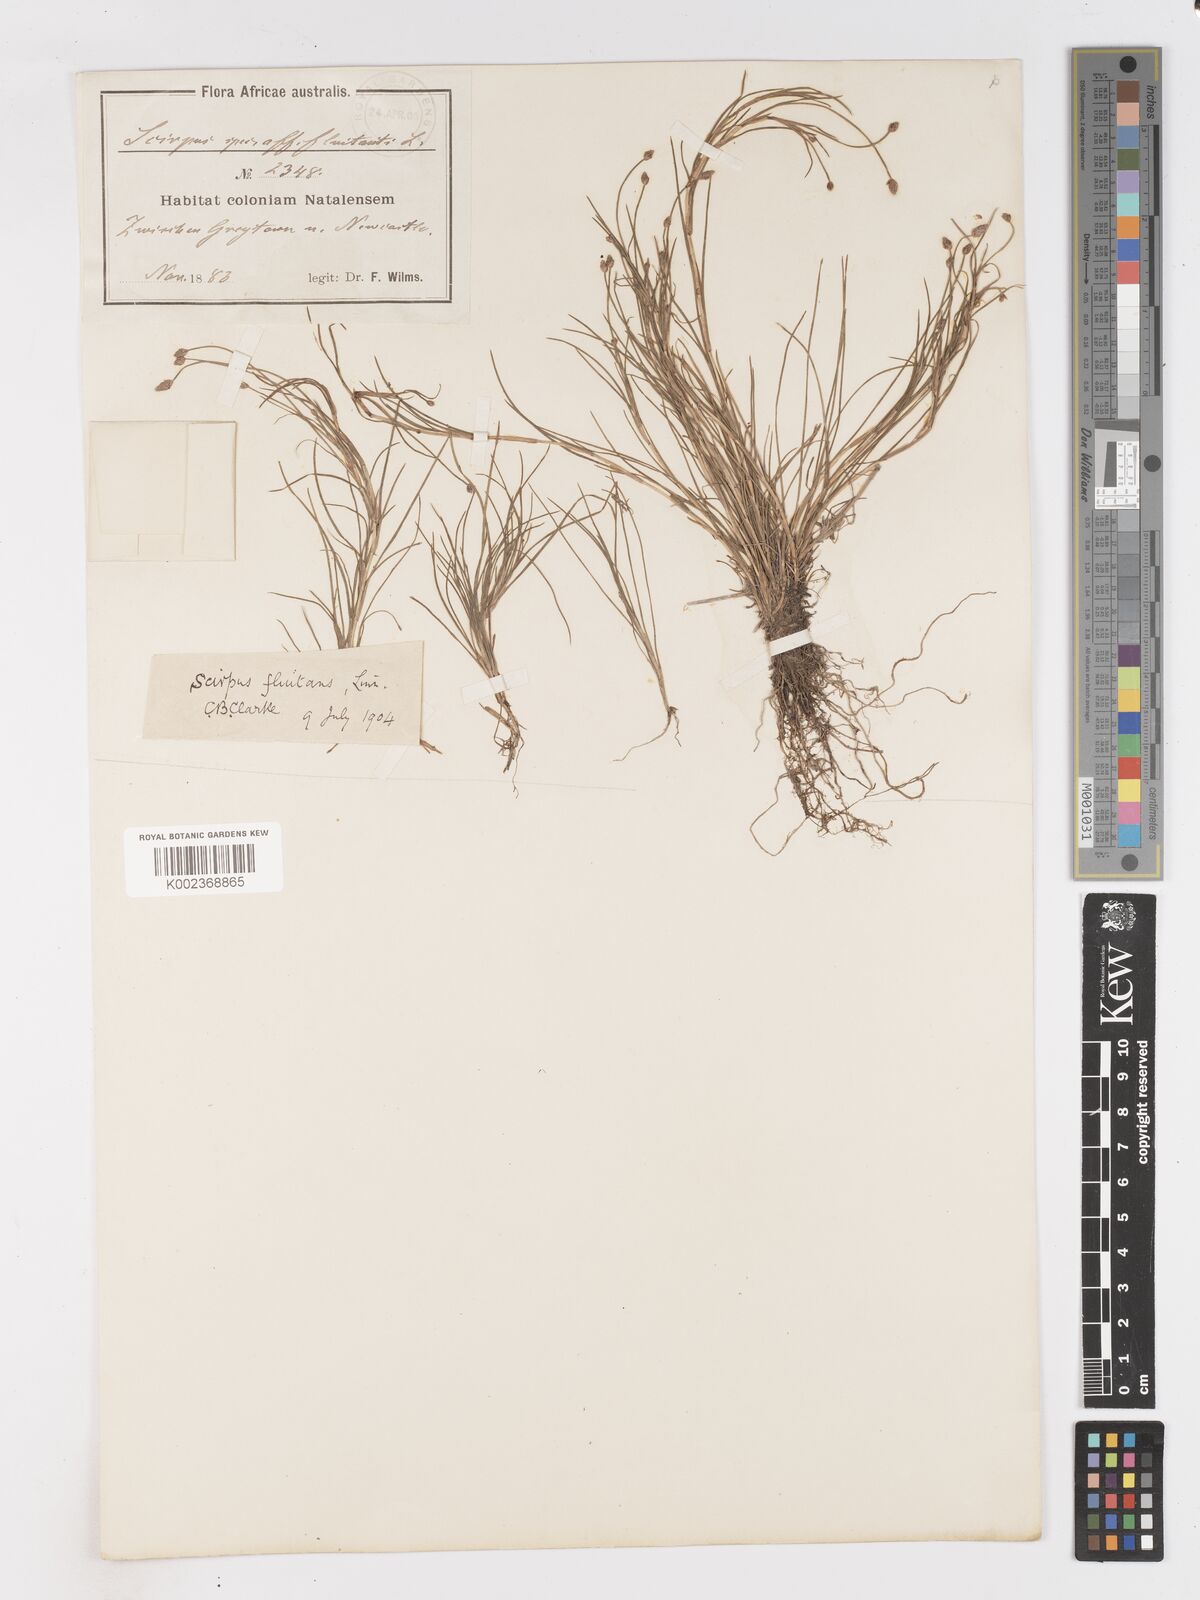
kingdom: Plantae
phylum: Tracheophyta
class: Liliopsida
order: Poales
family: Cyperaceae
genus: Isolepis
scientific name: Isolepis fluitans
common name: Floating club-rush
